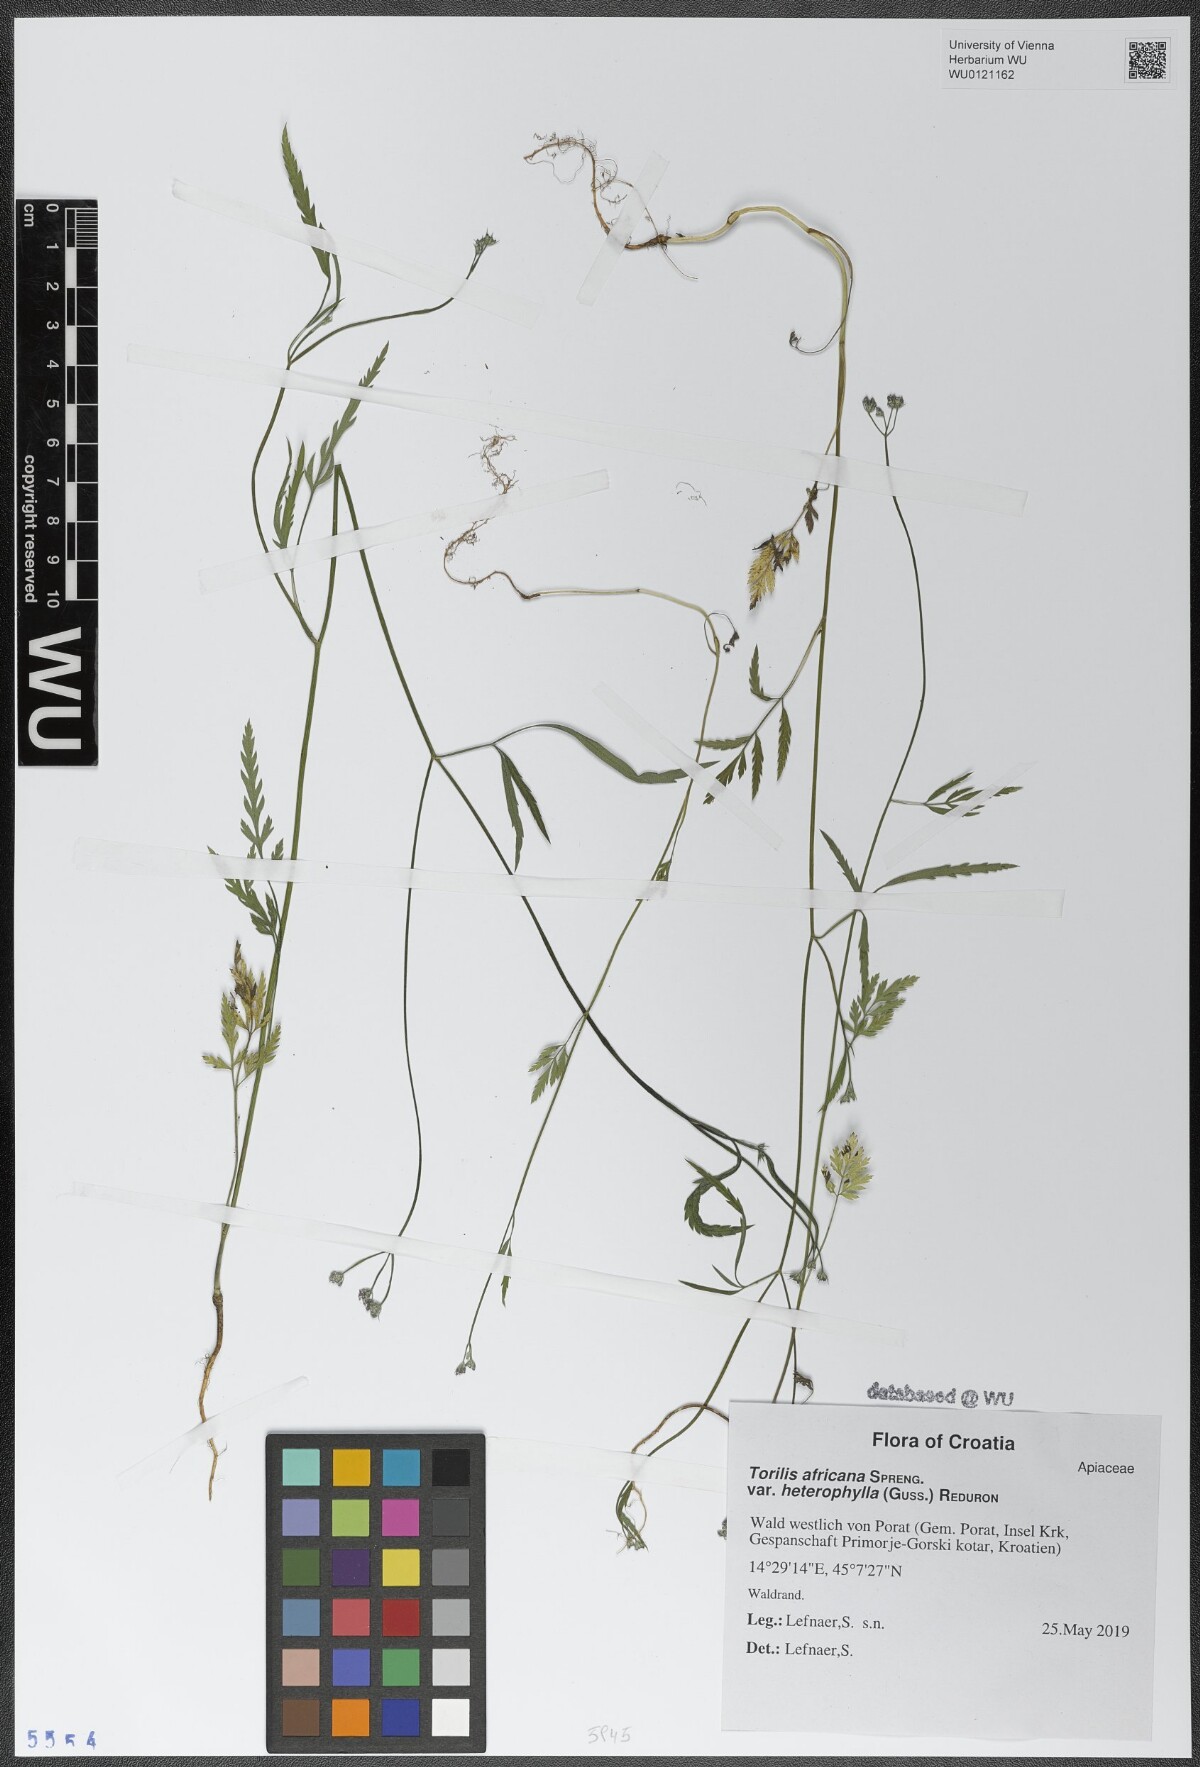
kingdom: Plantae
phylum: Tracheophyta
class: Magnoliopsida
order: Apiales
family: Apiaceae
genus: Torilis
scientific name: Torilis africana
